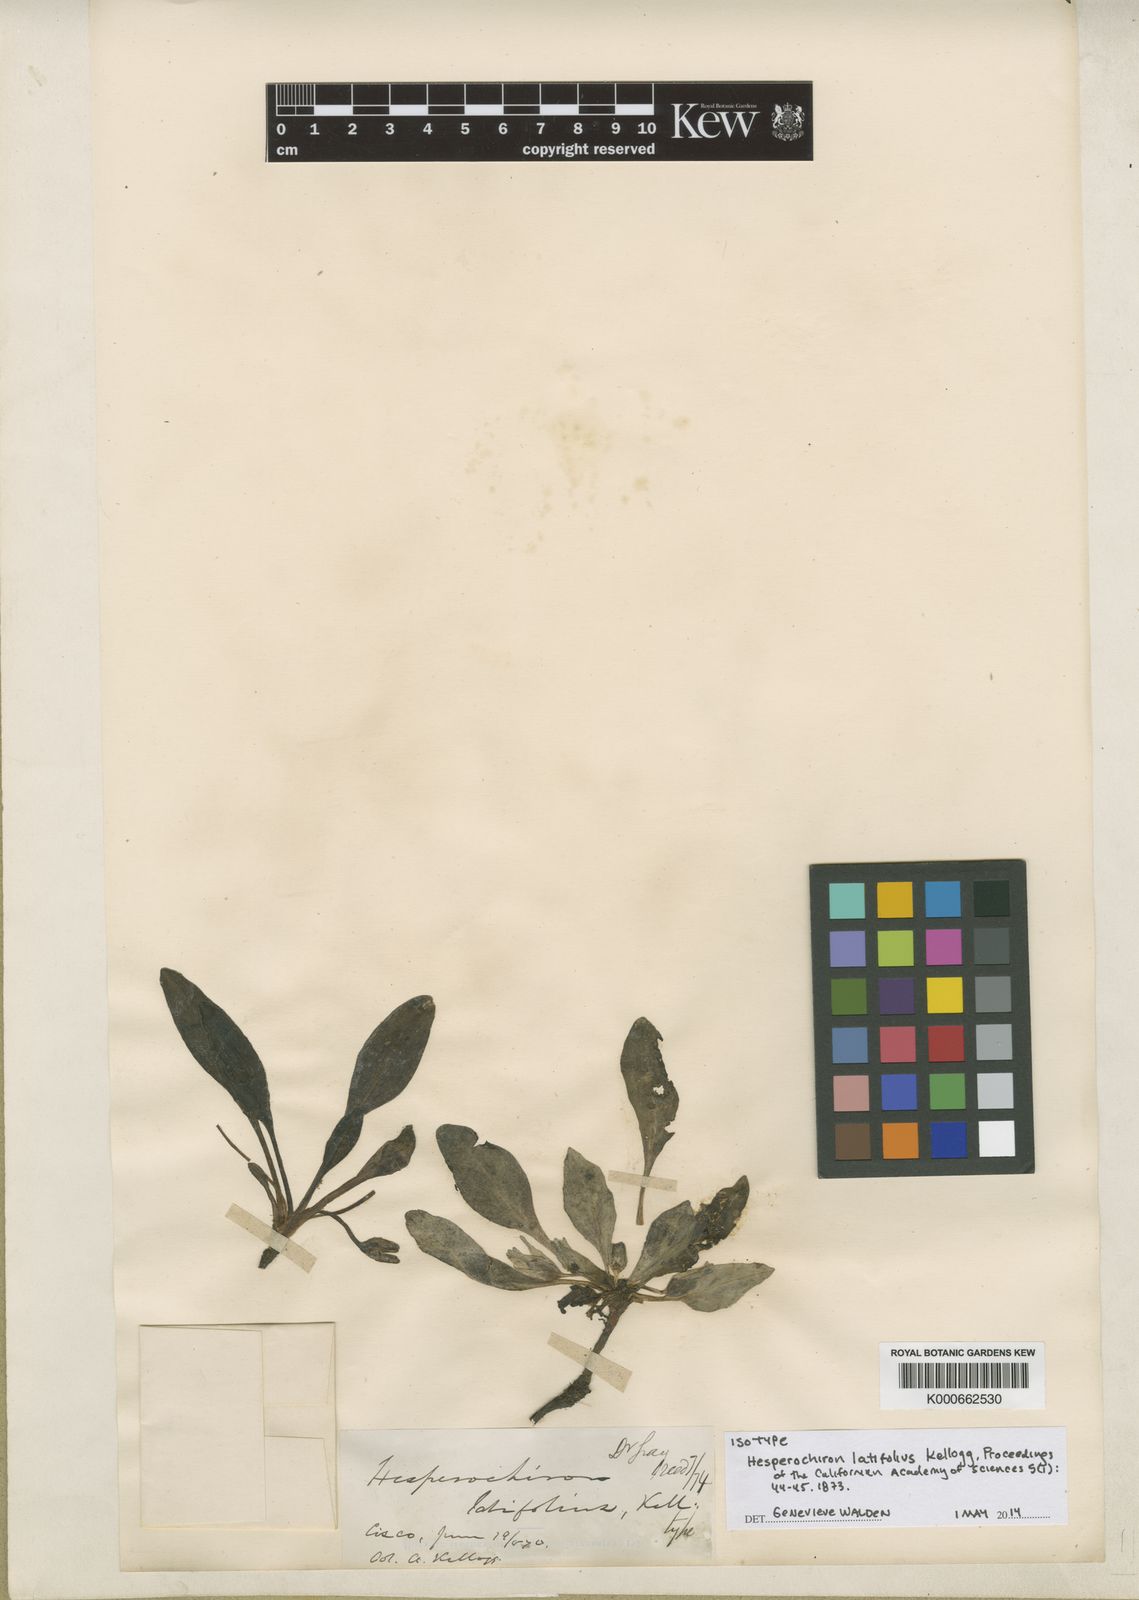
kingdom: Plantae
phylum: Tracheophyta
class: Magnoliopsida
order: Boraginales
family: Hydrophyllaceae
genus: Hesperochiron
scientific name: Hesperochiron californicus
